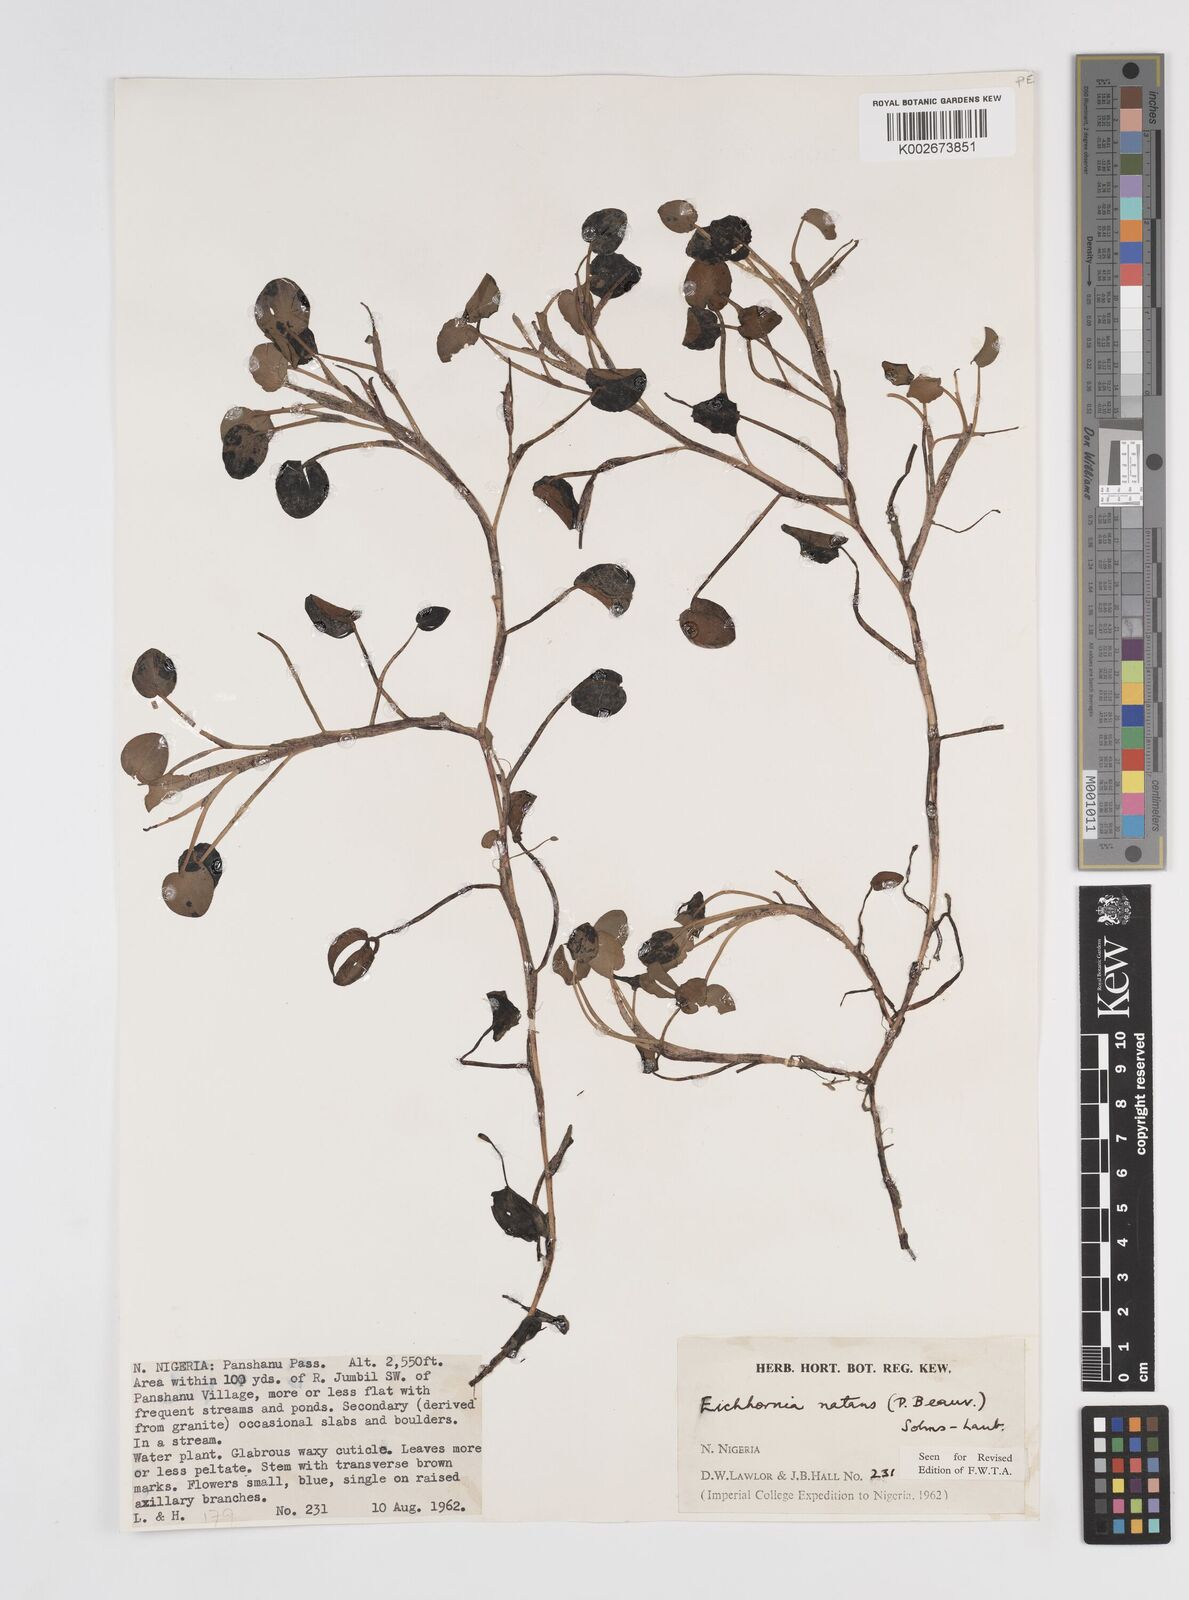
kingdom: Plantae
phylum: Tracheophyta
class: Liliopsida
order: Commelinales
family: Pontederiaceae
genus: Pontederia
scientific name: Pontederia natans
